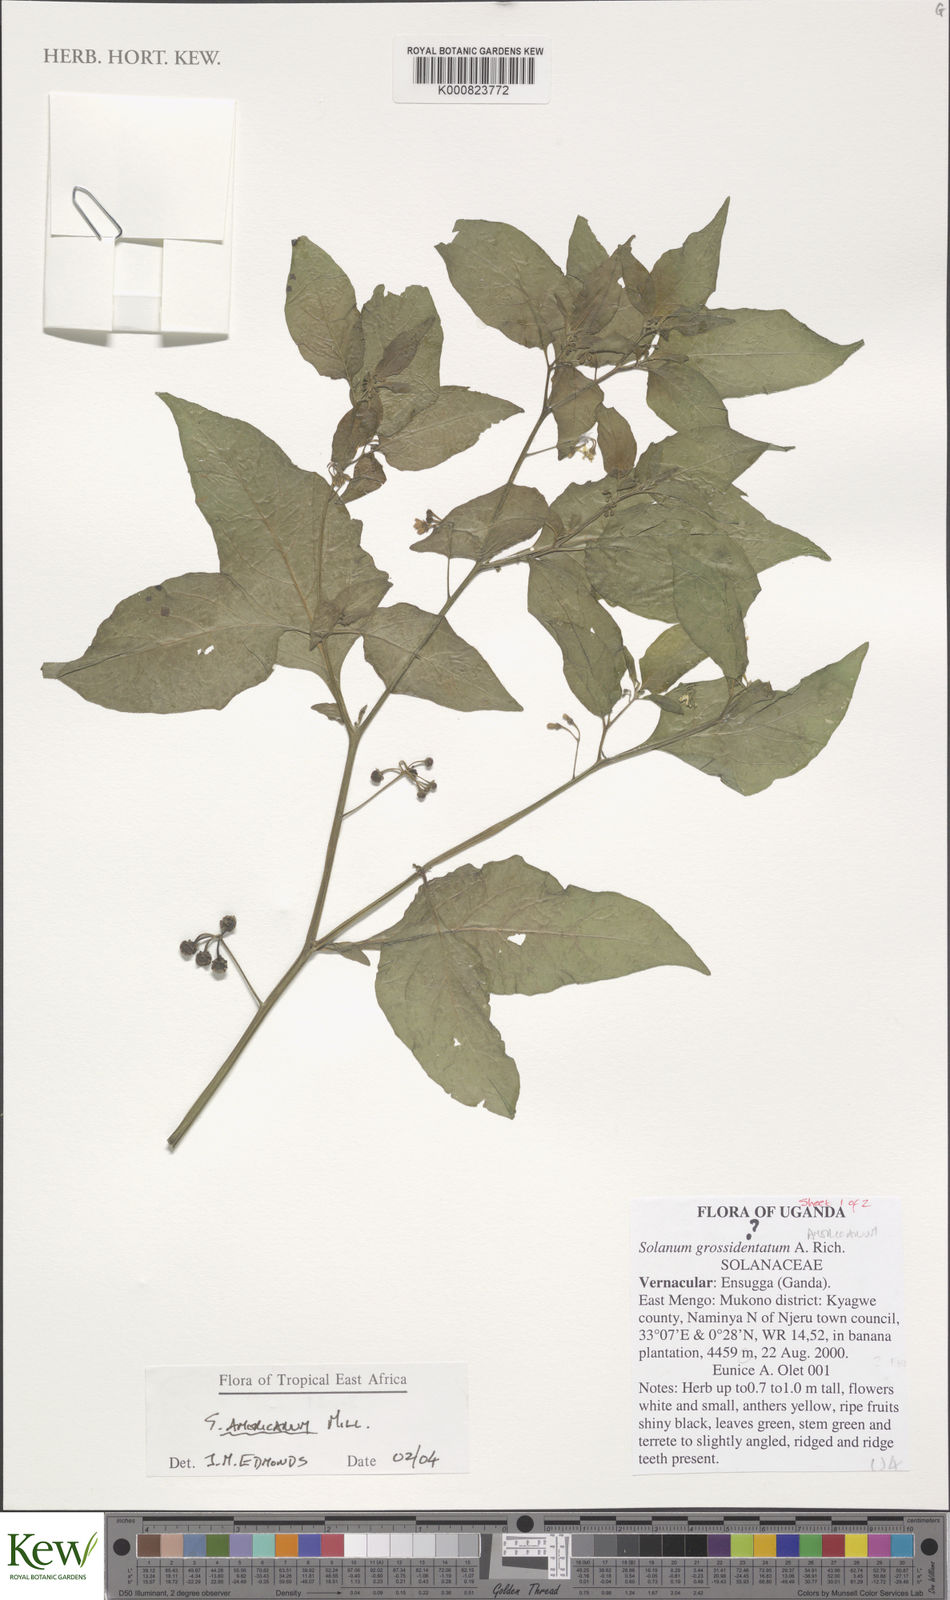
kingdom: Plantae
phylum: Tracheophyta
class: Magnoliopsida
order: Solanales
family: Solanaceae
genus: Solanum
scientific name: Solanum americanum
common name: American black nightshade
